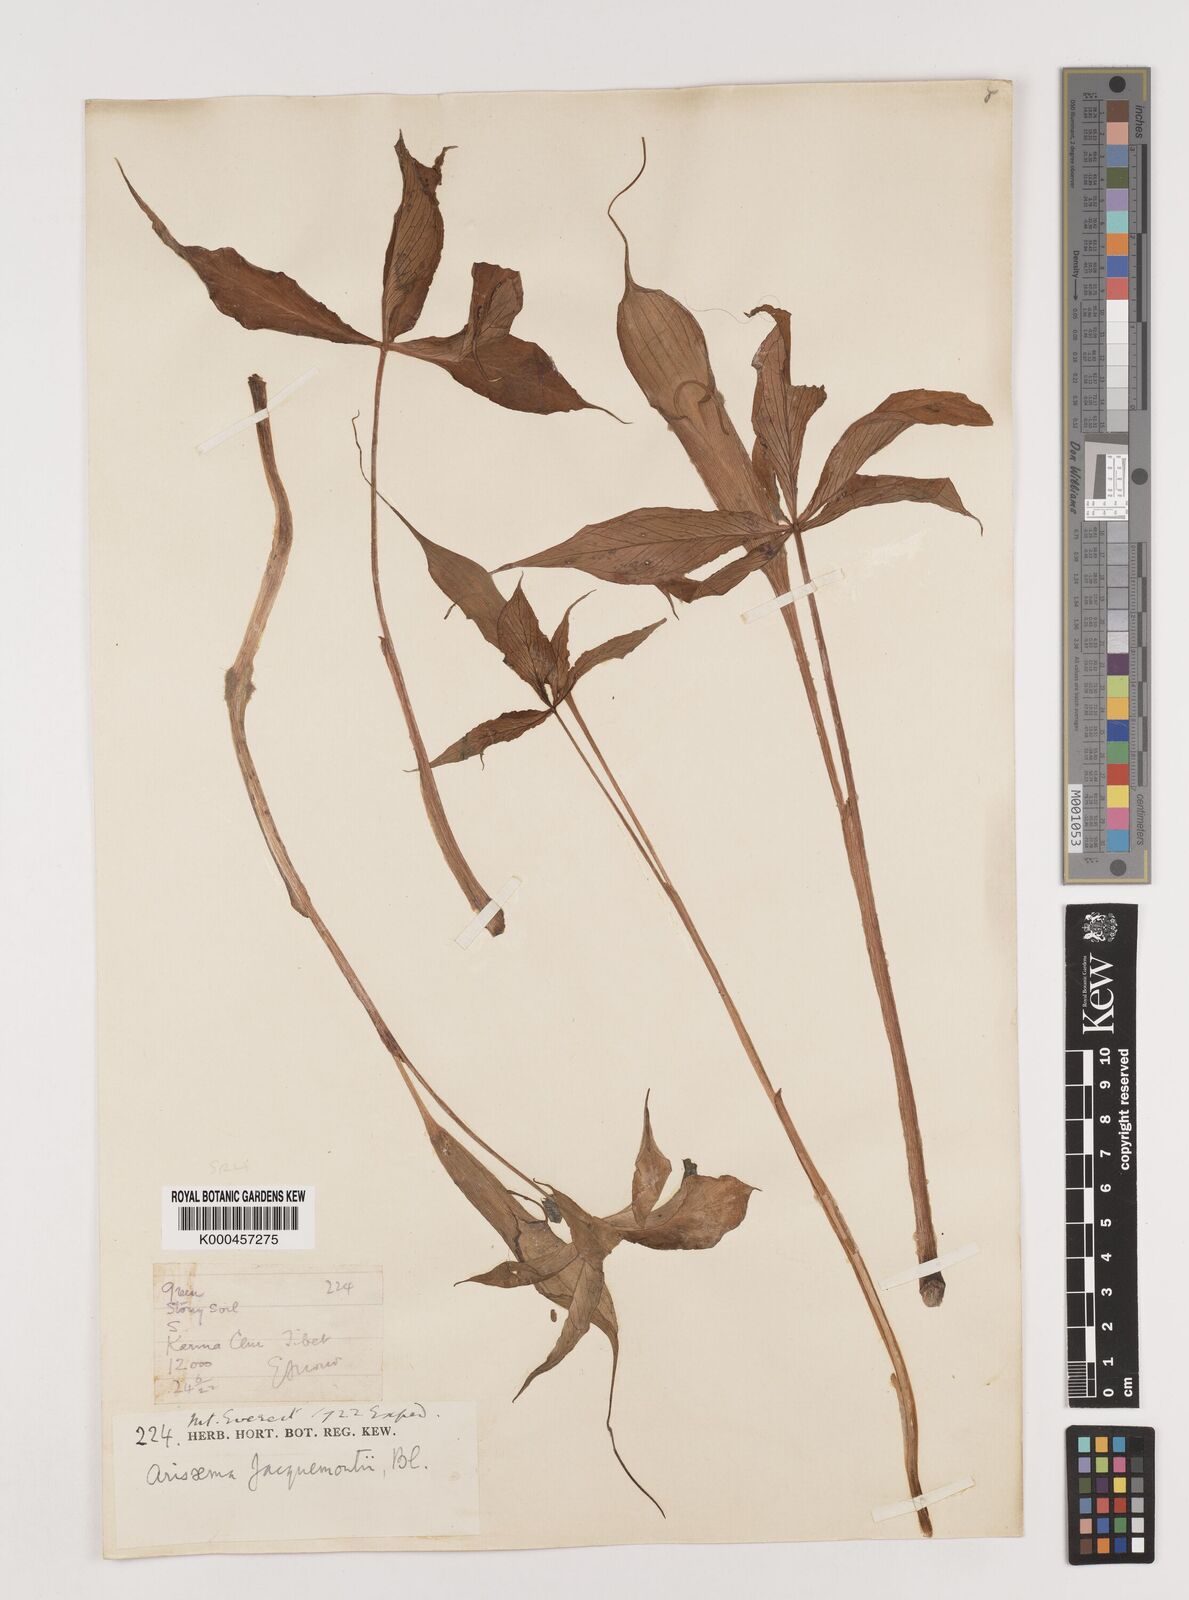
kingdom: Plantae
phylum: Tracheophyta
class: Liliopsida
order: Alismatales
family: Araceae
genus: Arisaema
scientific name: Arisaema jacquemontii
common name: Jacquemont's cobra-lily
